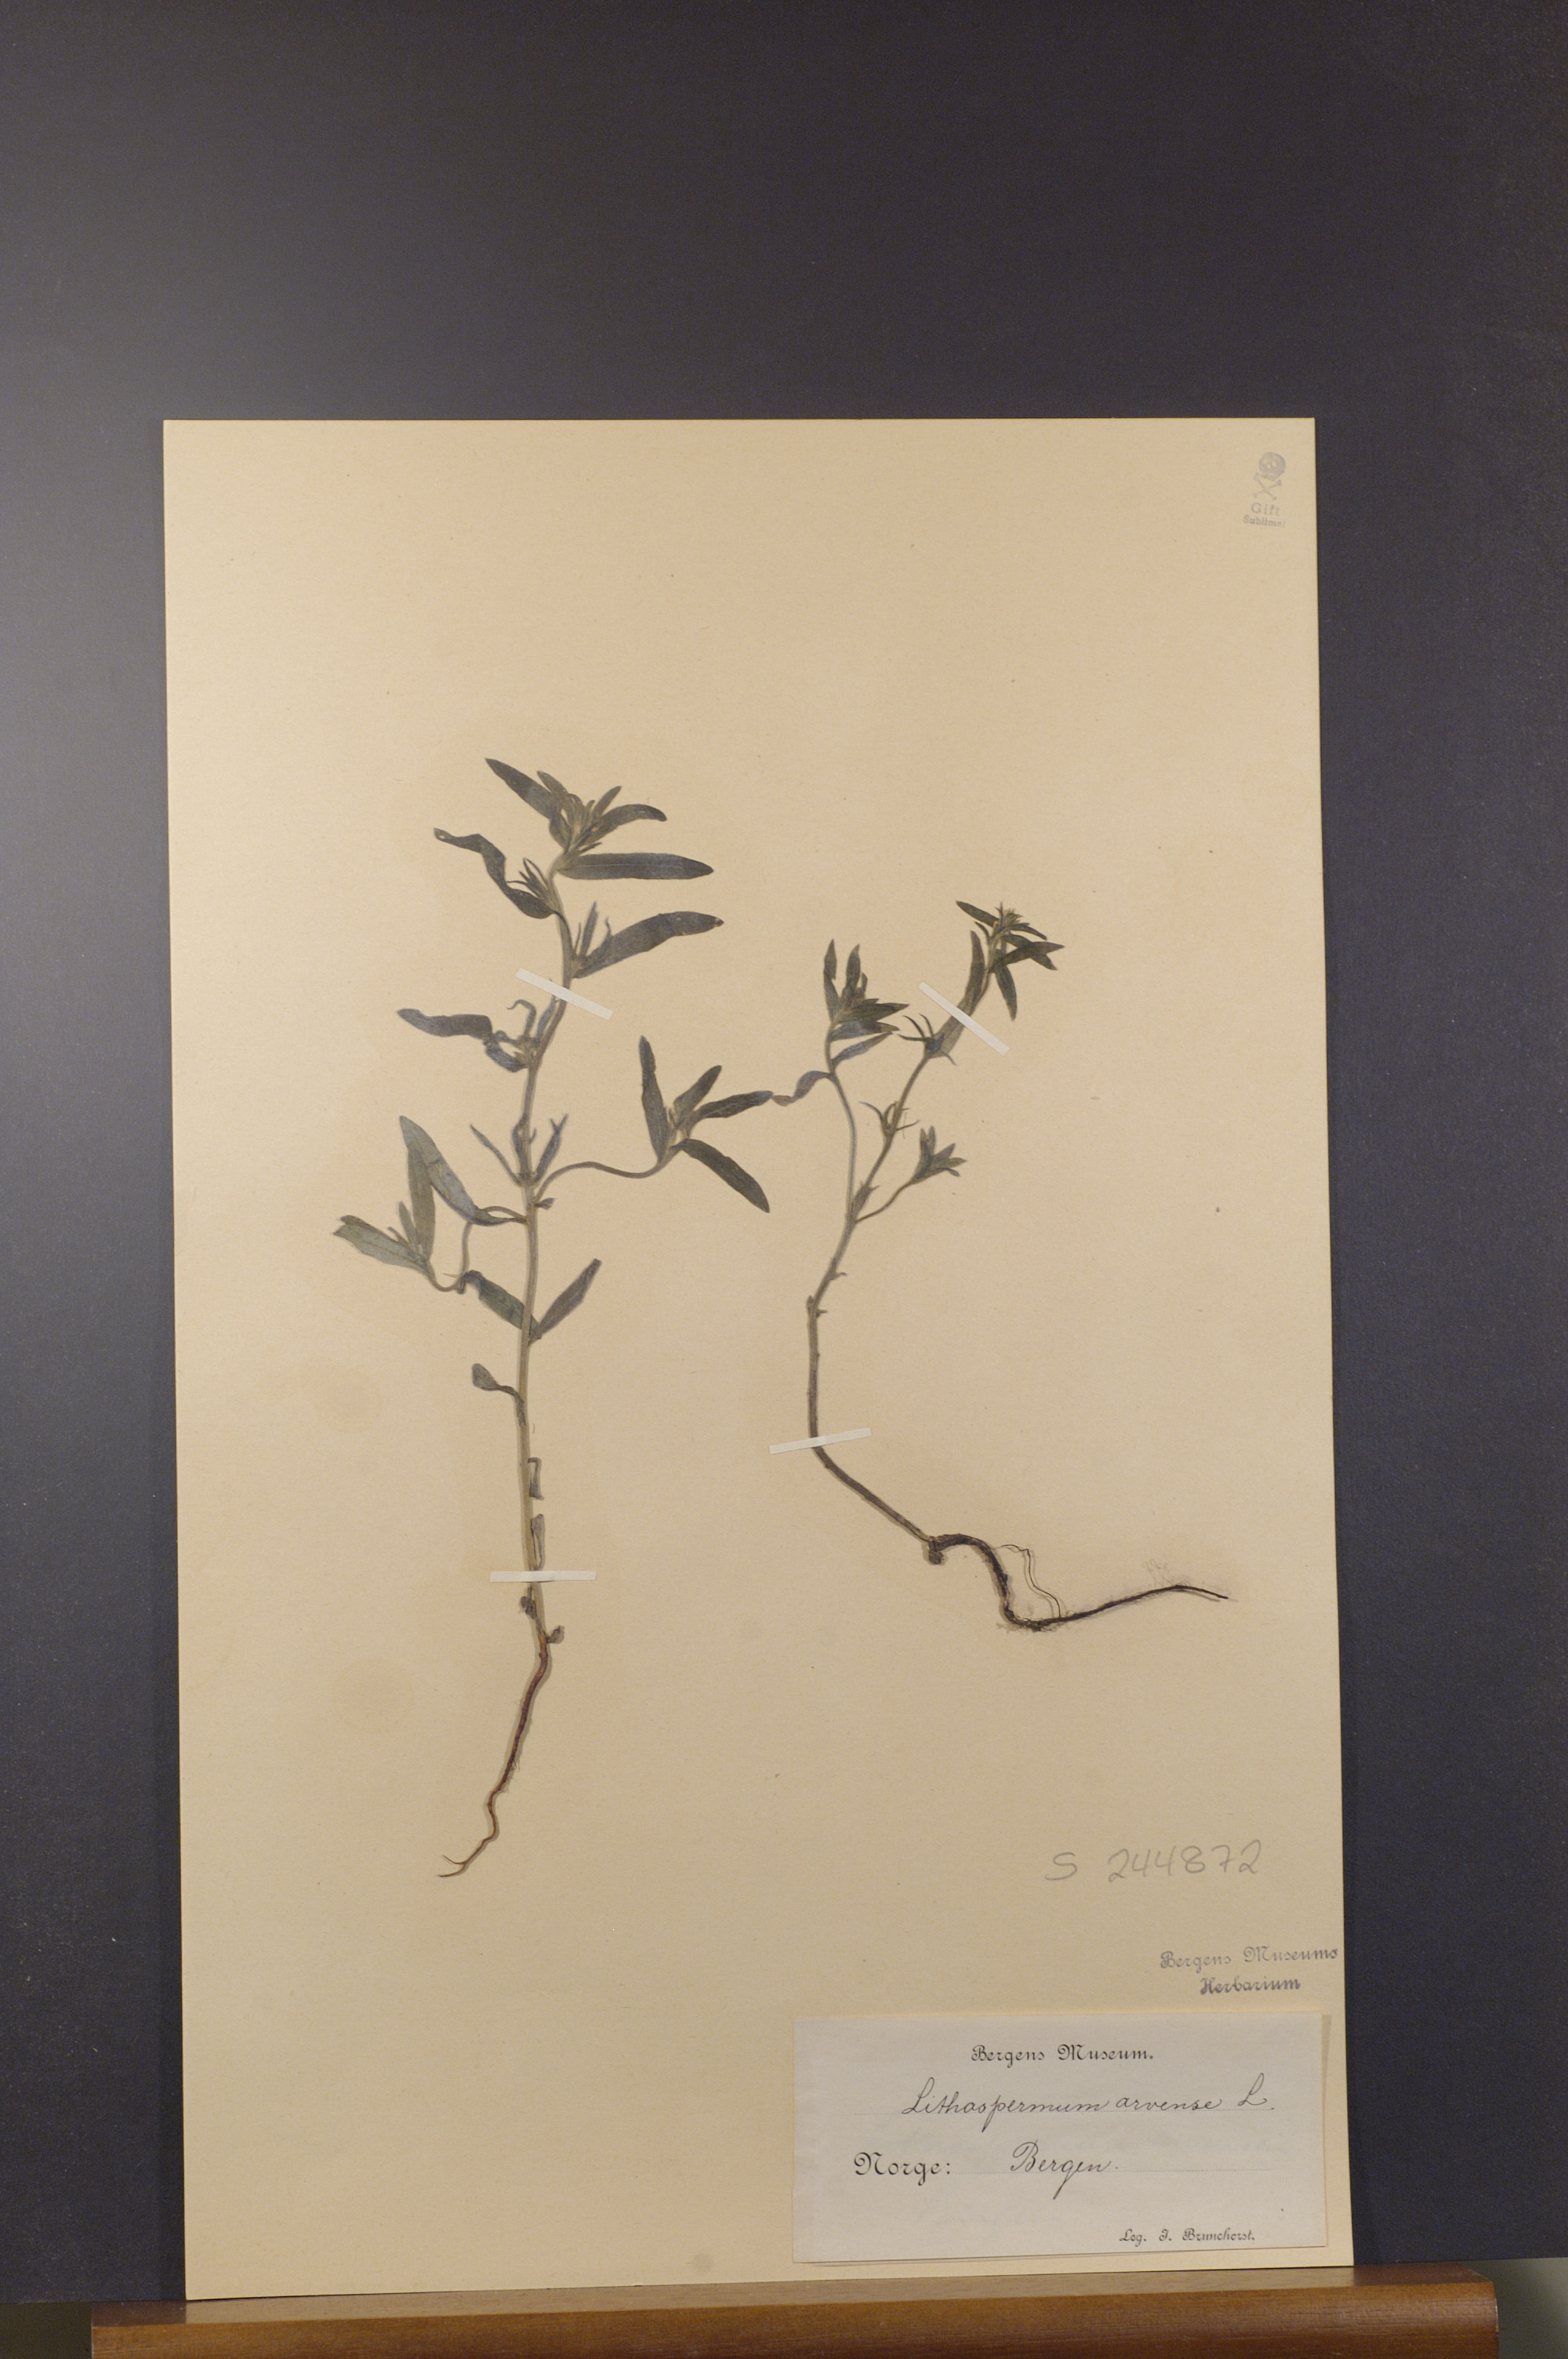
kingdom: Plantae
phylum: Tracheophyta
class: Magnoliopsida
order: Boraginales
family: Boraginaceae
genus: Buglossoides
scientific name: Buglossoides arvensis
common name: Corn gromwell
